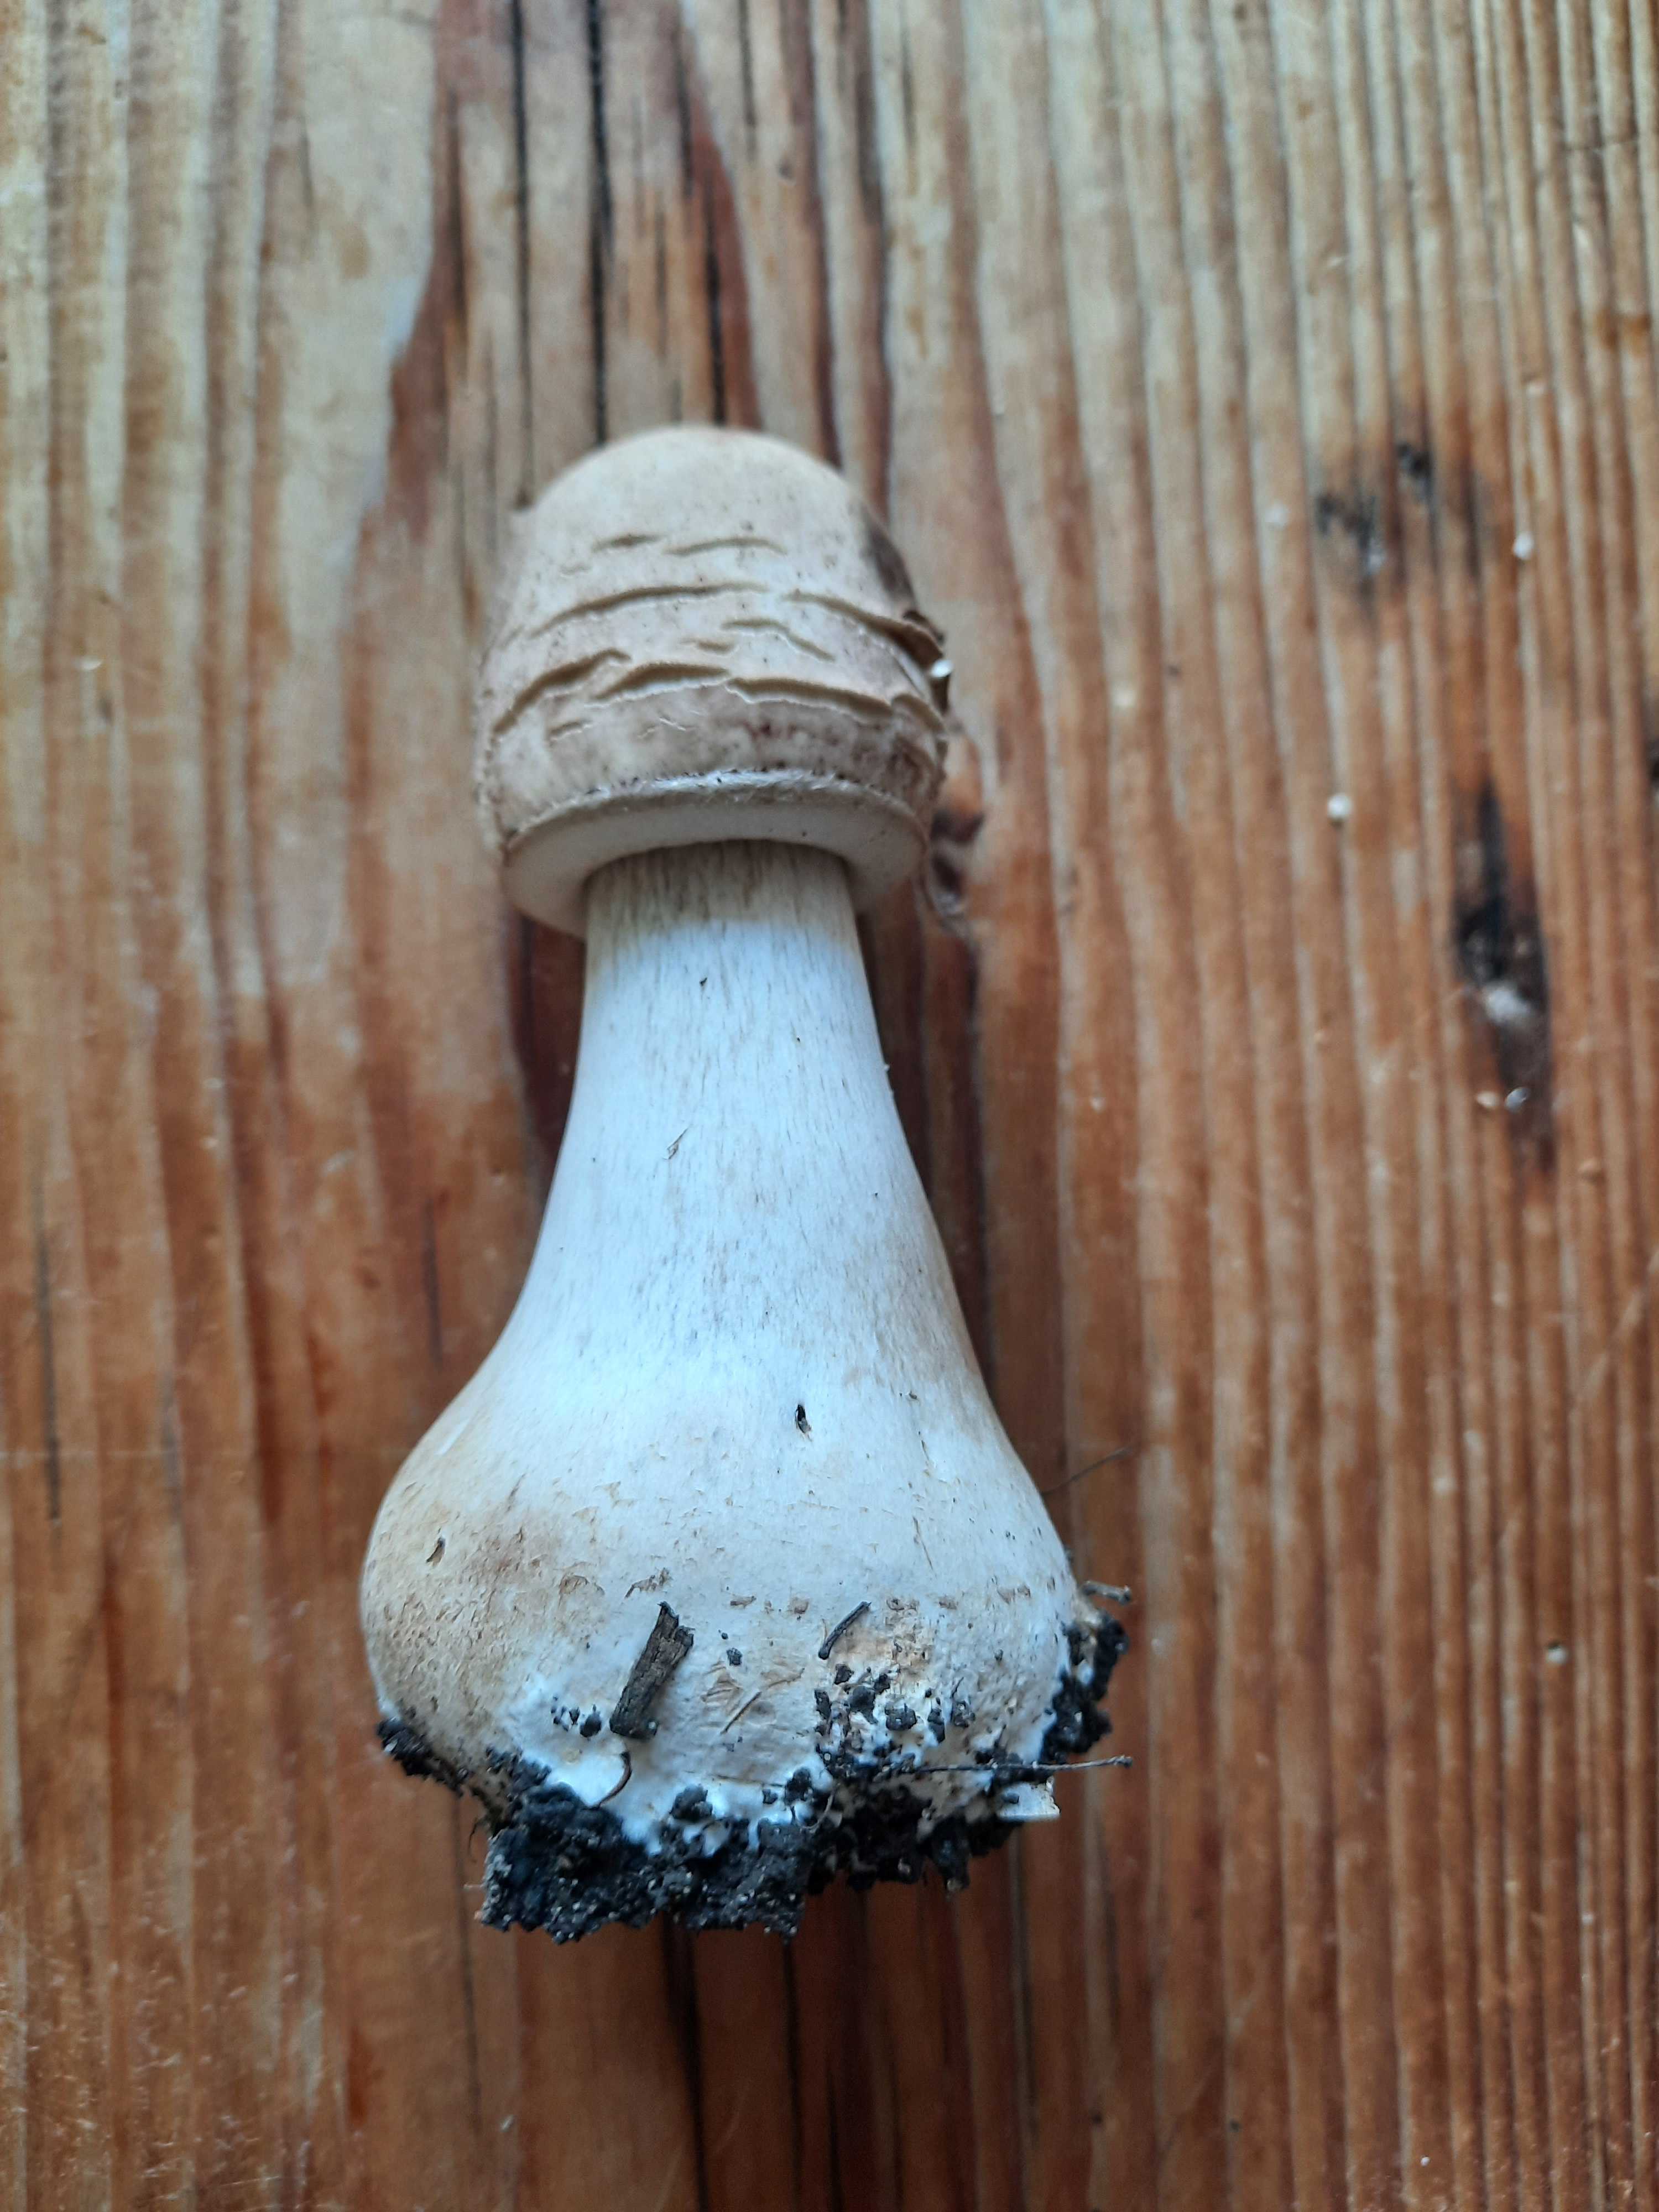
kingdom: Fungi
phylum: Basidiomycota
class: Agaricomycetes
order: Agaricales
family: Agaricaceae
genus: Chlorophyllum
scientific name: Chlorophyllum
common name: rabarberhat
